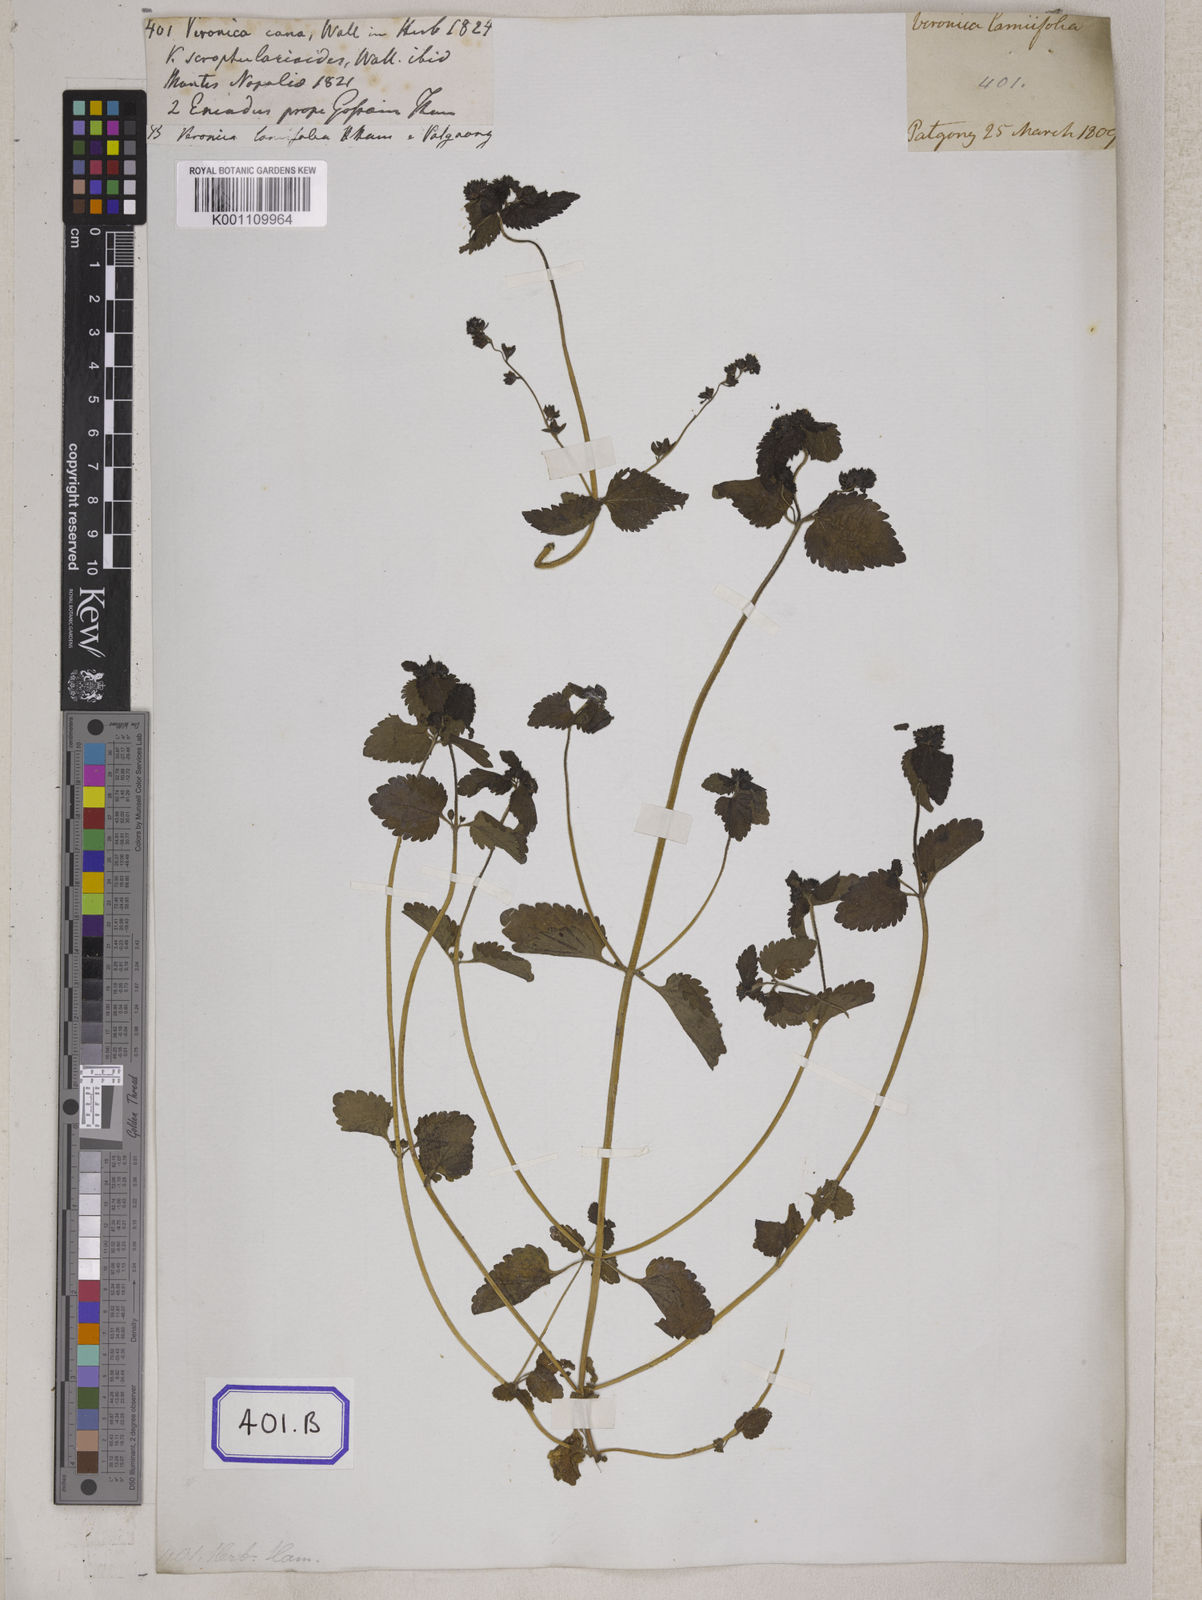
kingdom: Plantae
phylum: Tracheophyta
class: Magnoliopsida
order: Lamiales
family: Plantaginaceae
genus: Veronica
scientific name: Veronica
